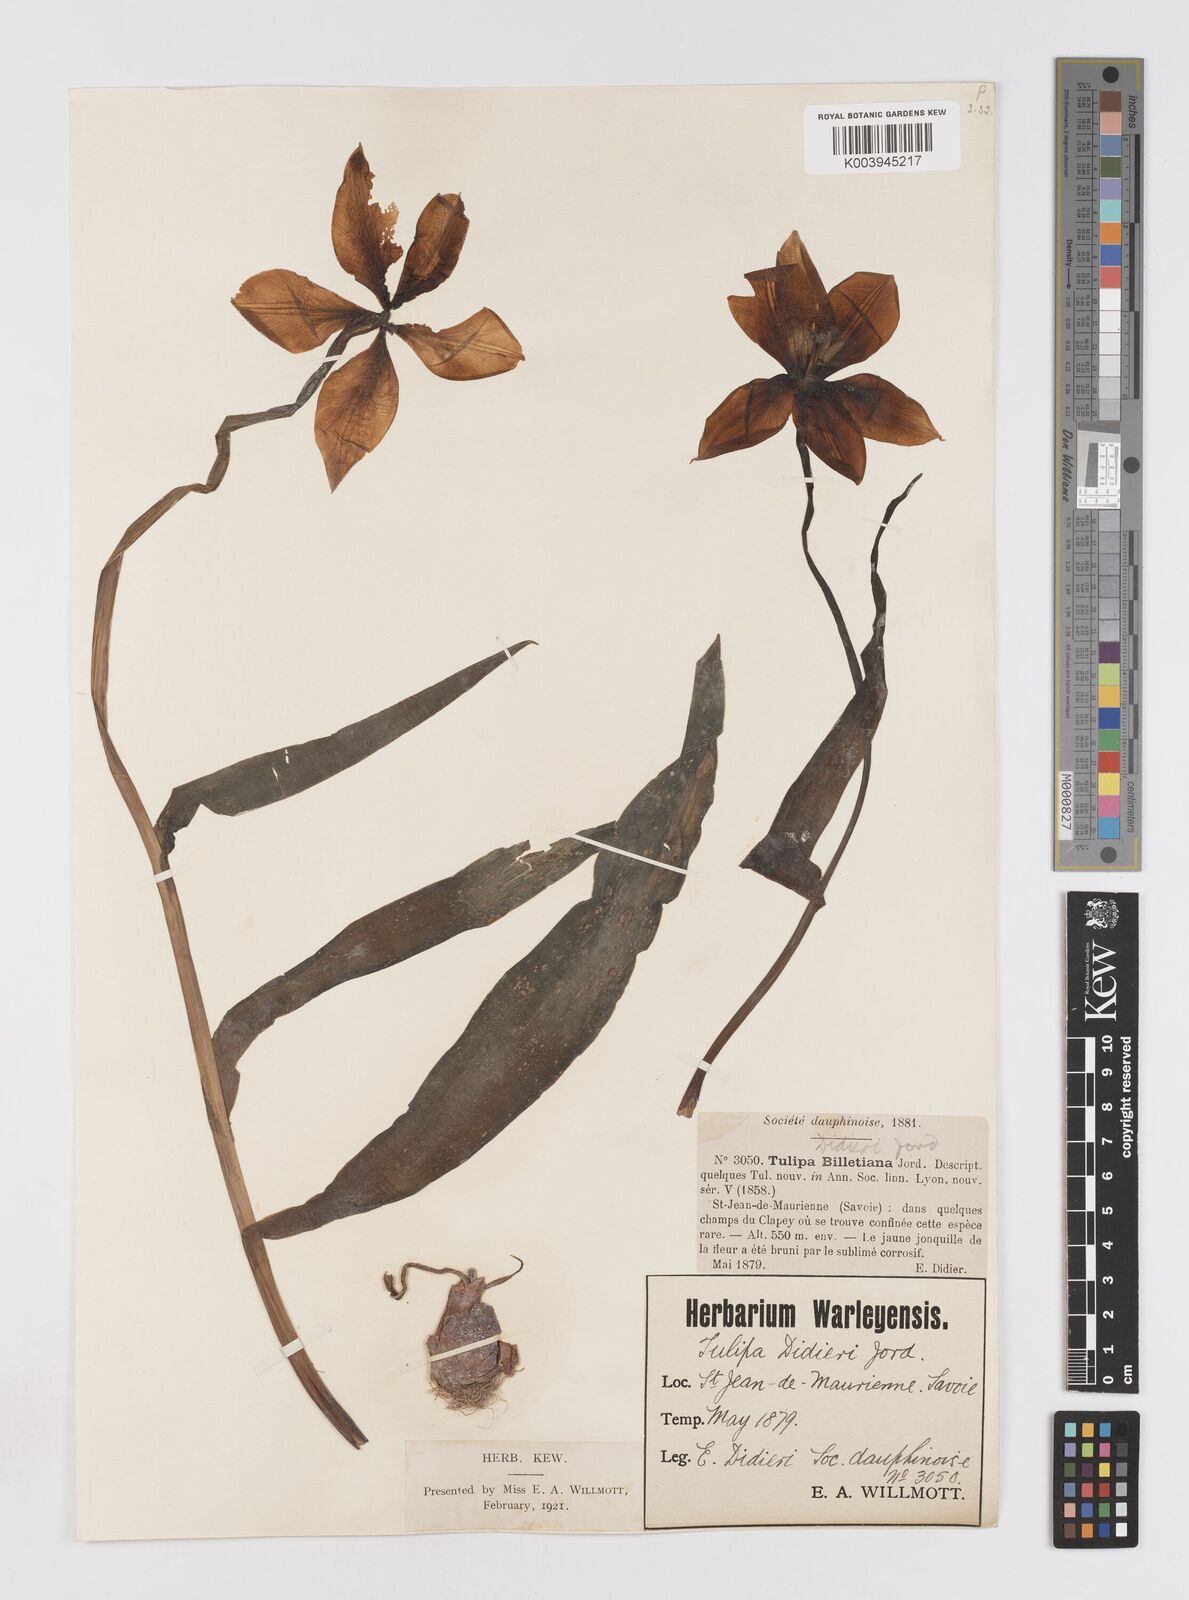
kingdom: Plantae
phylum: Tracheophyta
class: Liliopsida
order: Liliales
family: Liliaceae
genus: Tulipa
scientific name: Tulipa gesneriana
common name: Garden tulip
